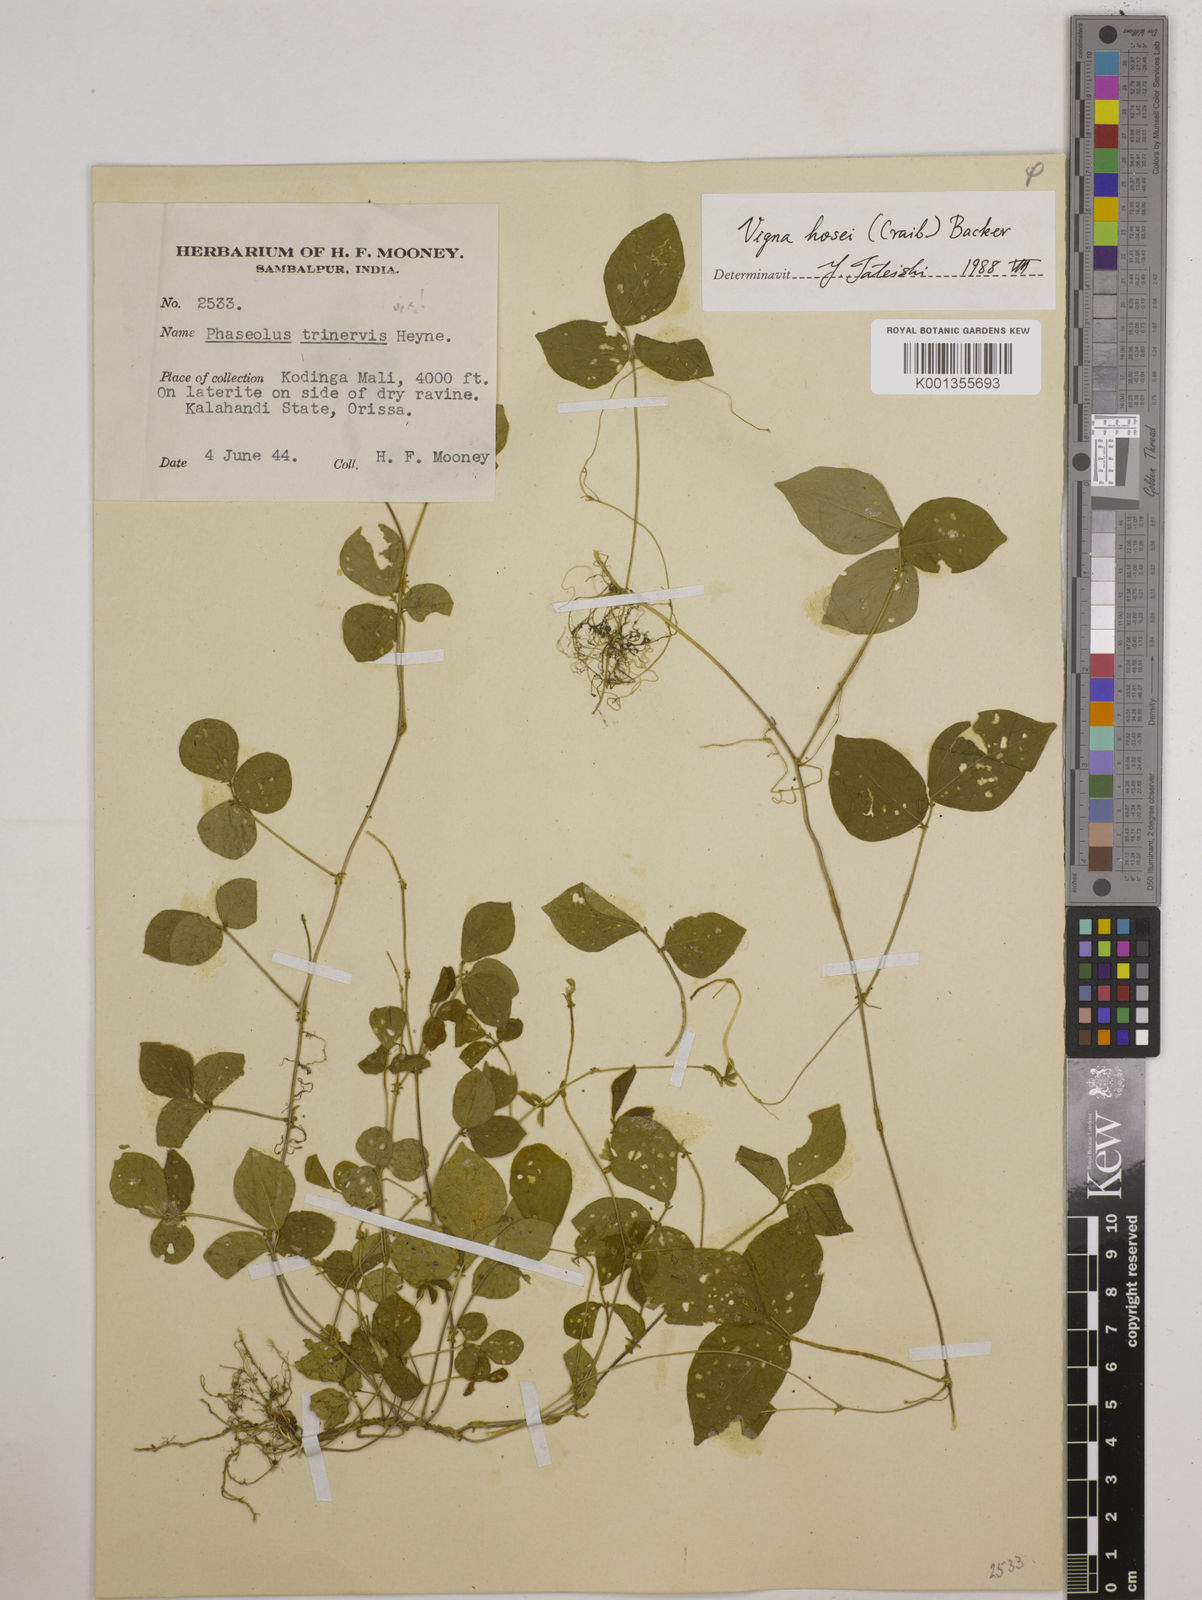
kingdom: Plantae
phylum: Tracheophyta
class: Magnoliopsida
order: Fabales
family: Fabaceae
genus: Vigna
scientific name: Vigna hosei
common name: Sarawak-bean
